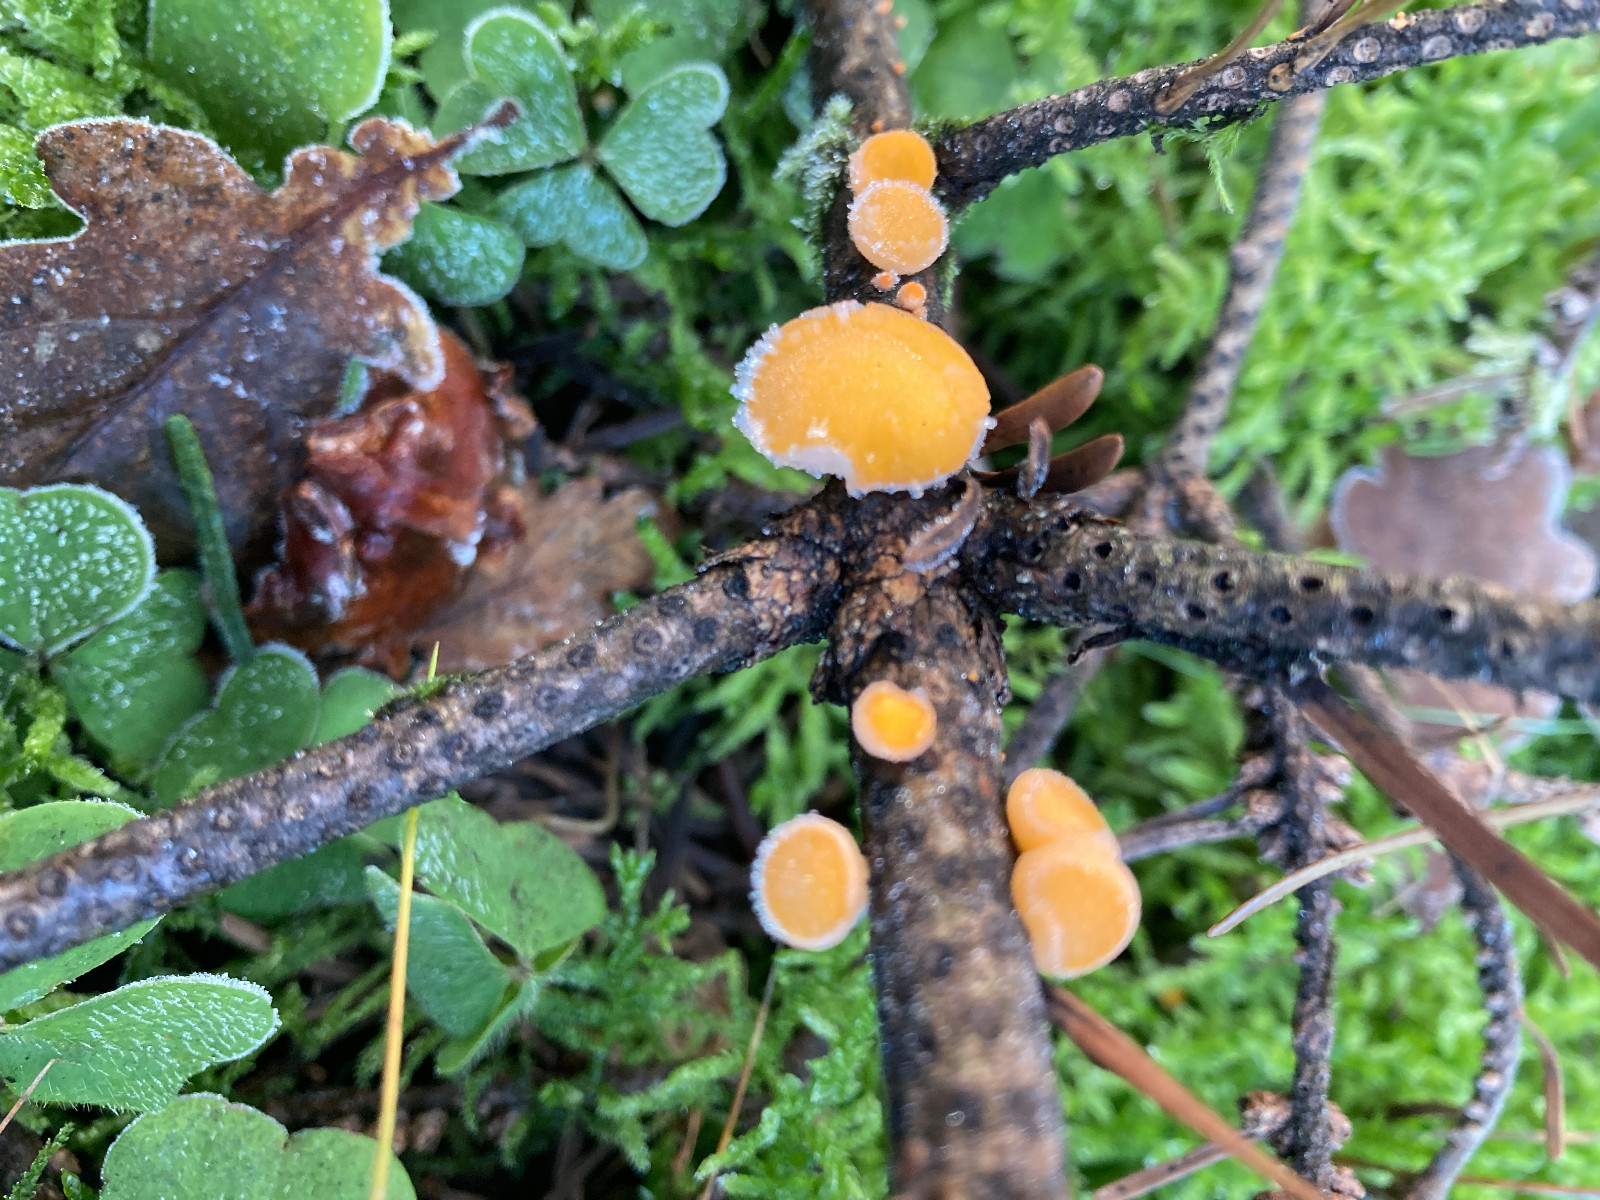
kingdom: Fungi
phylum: Ascomycota
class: Pezizomycetes
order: Pezizales
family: Sarcoscyphaceae
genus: Pithya
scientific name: Pithya vulgaris
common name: stor dukatbæger
